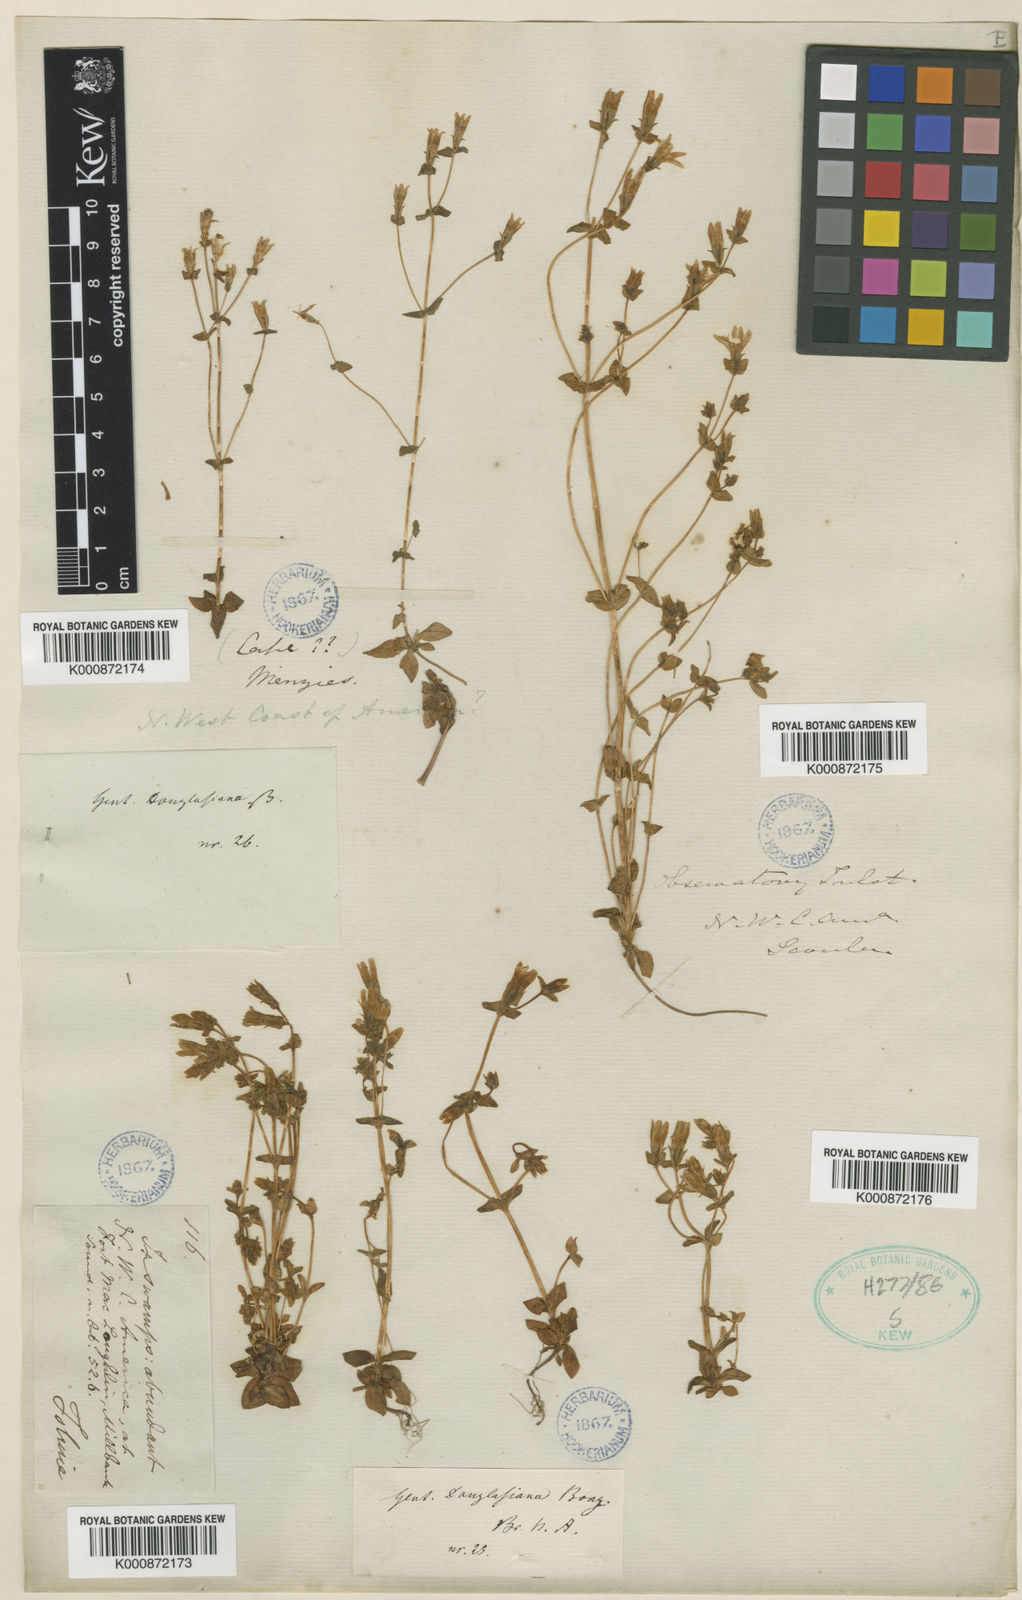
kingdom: Plantae
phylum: Tracheophyta
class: Magnoliopsida
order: Gentianales
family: Gentianaceae
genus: Gentiana
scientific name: Gentiana douglasiana
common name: Swamp gentian
